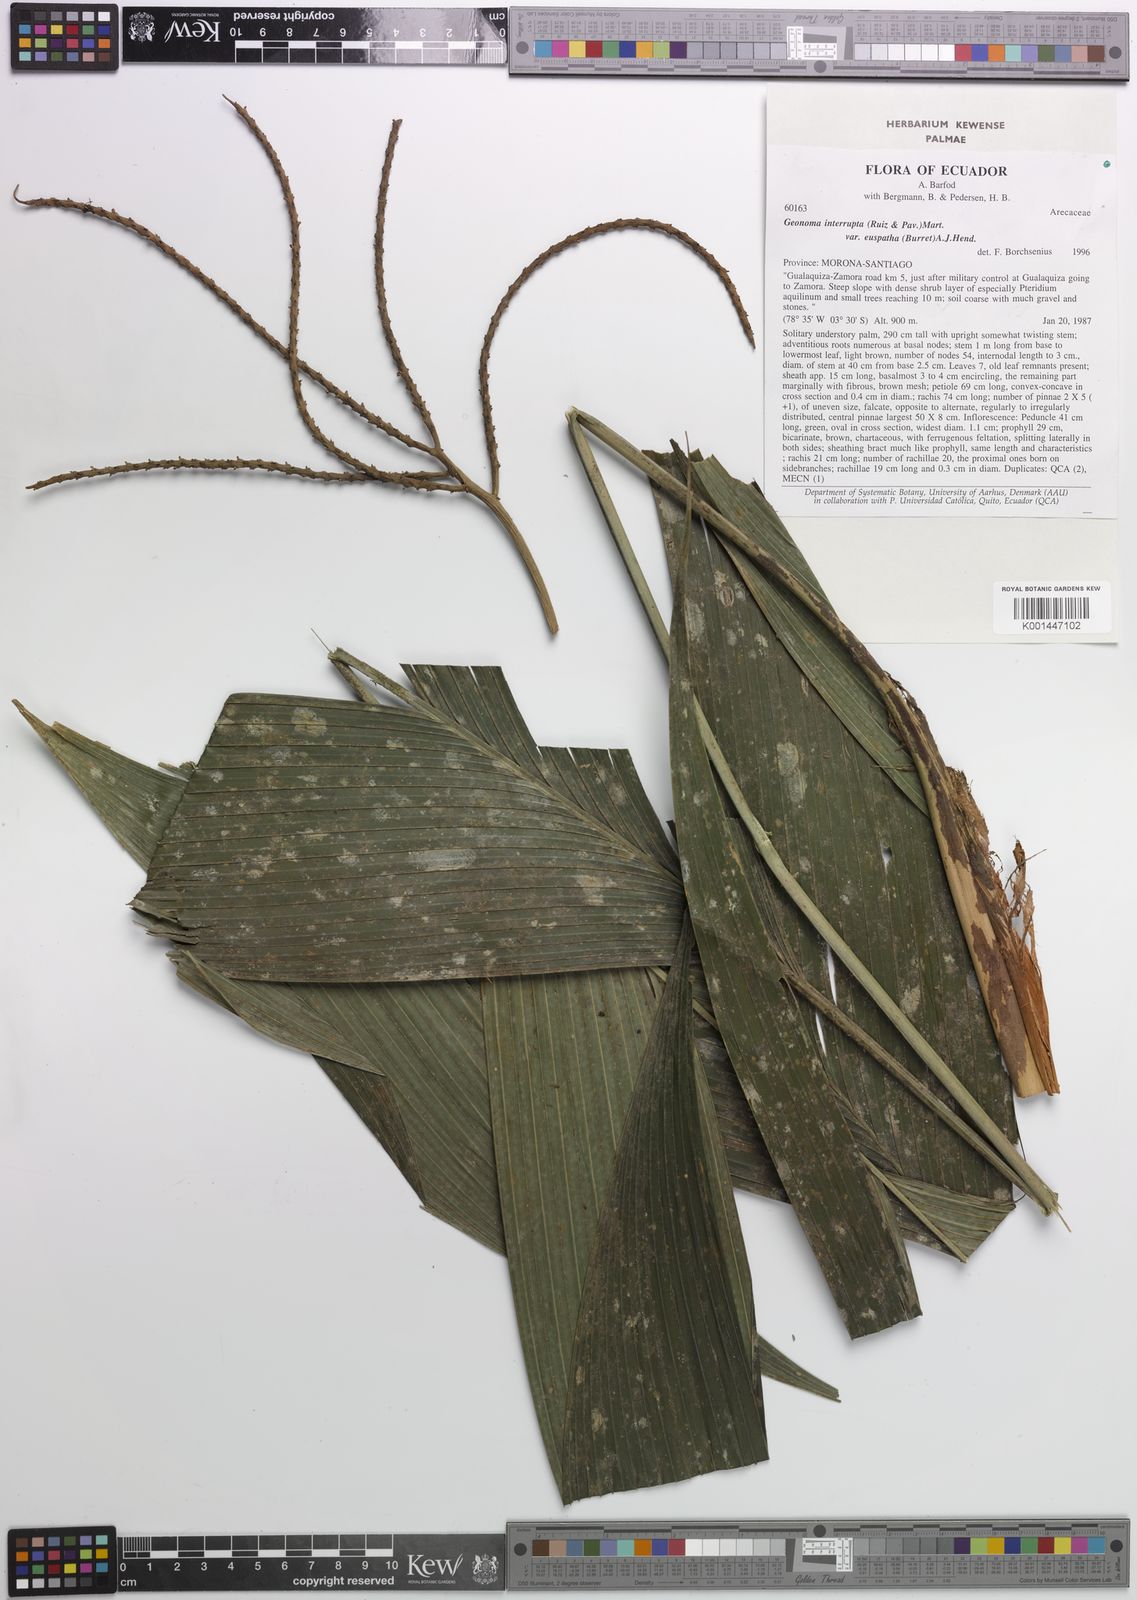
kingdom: Plantae
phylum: Tracheophyta
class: Liliopsida
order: Arecales
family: Arecaceae
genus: Geonoma
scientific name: Geonoma euspatha
